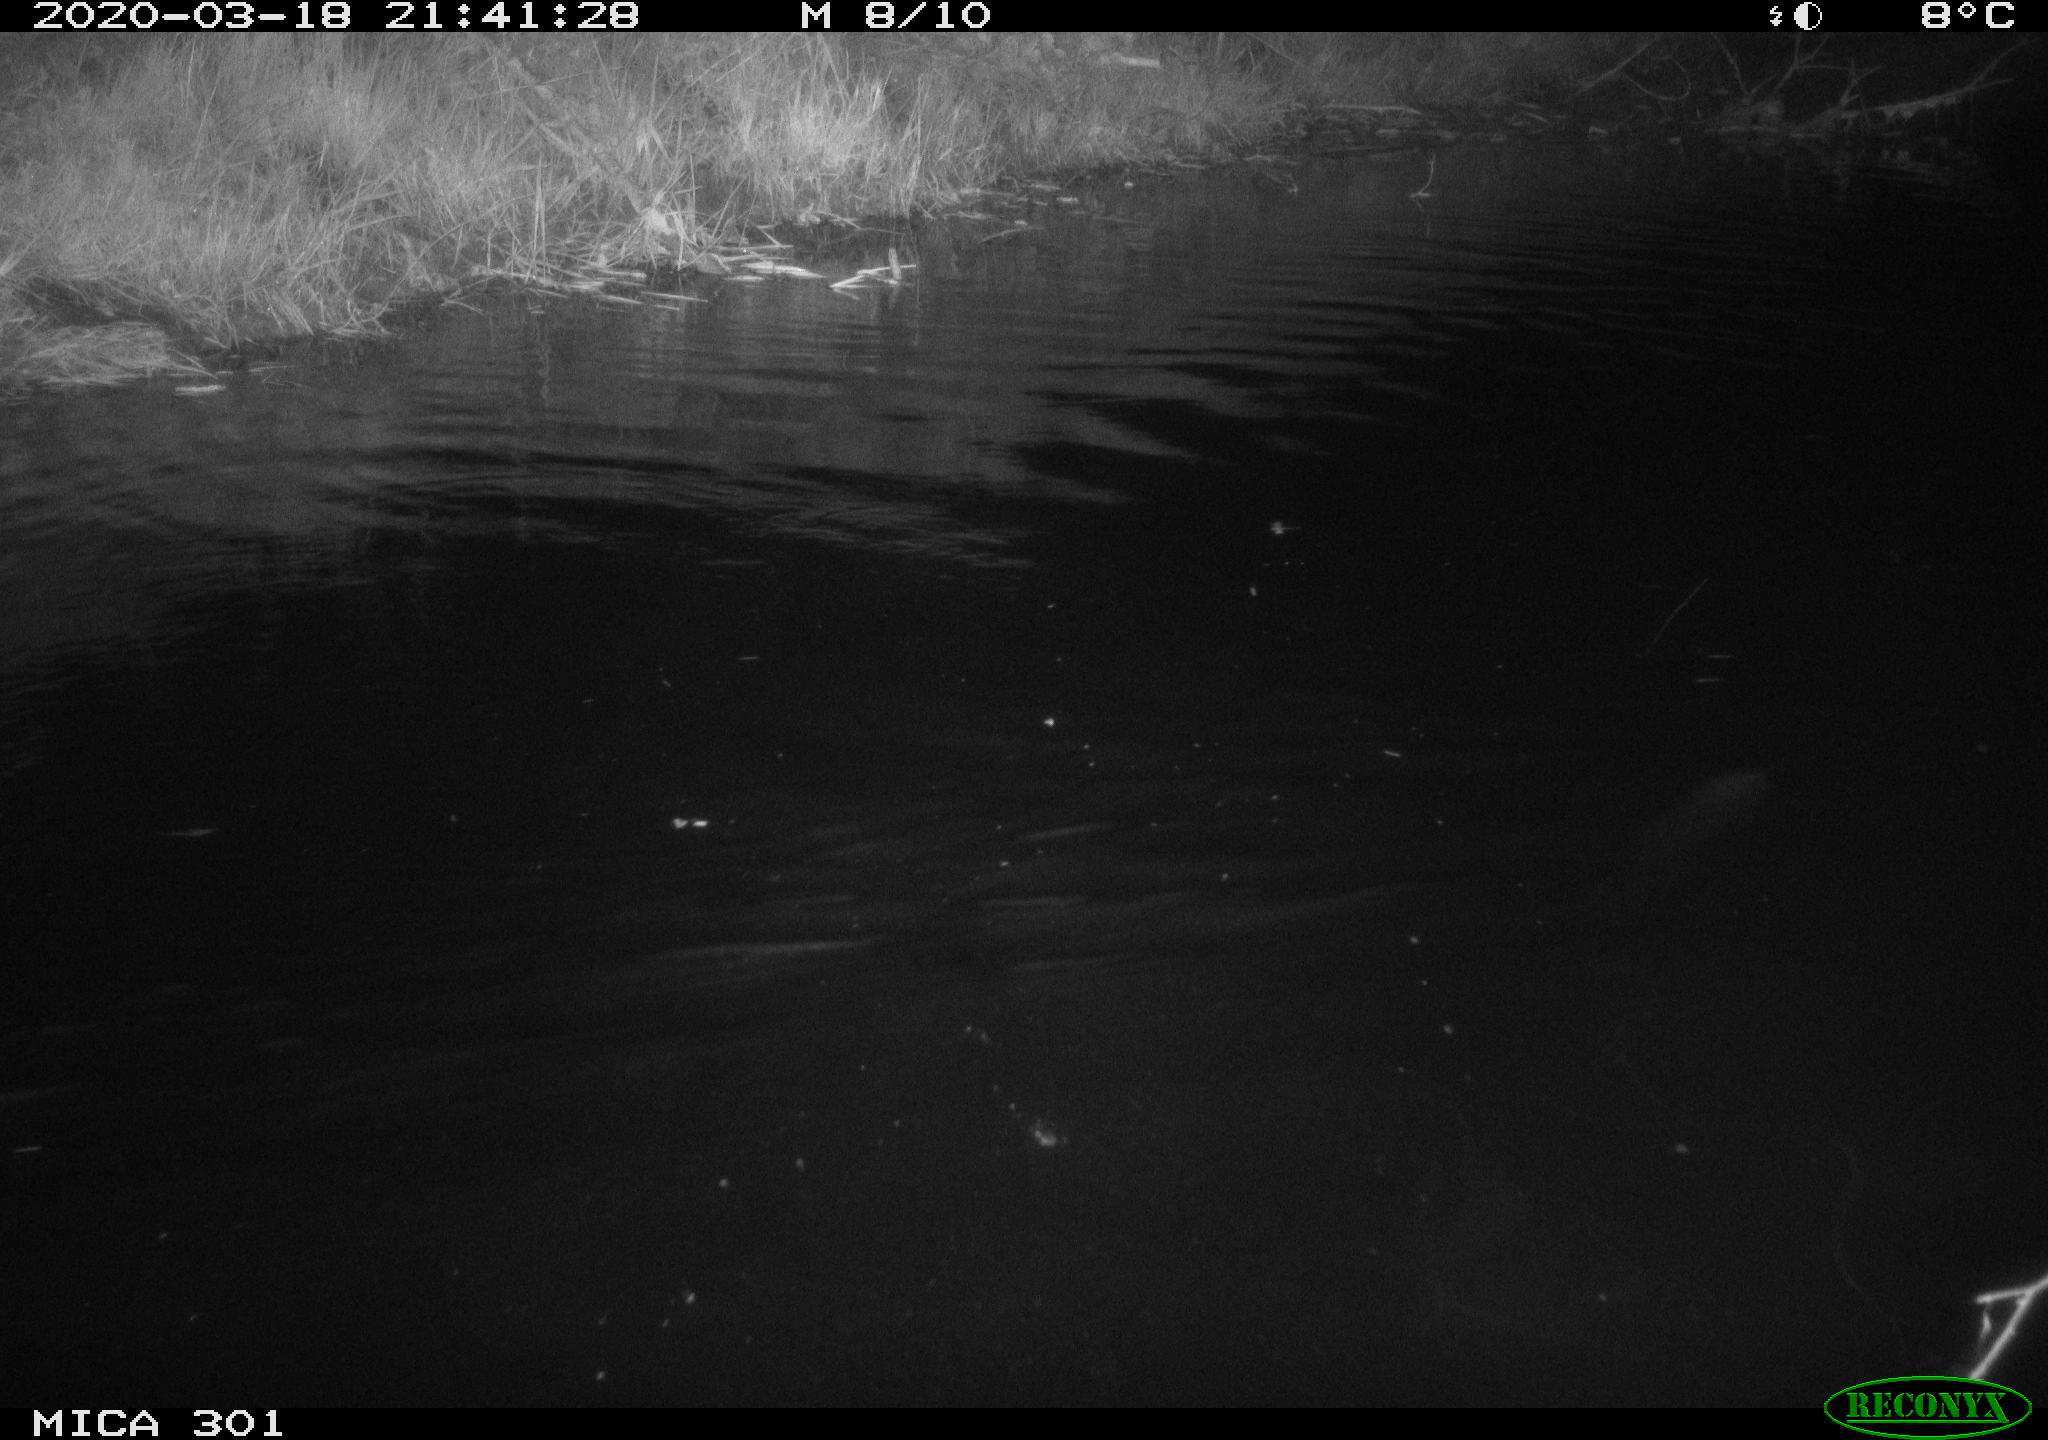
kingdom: Animalia
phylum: Chordata
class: Mammalia
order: Rodentia
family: Castoridae
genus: Castor
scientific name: Castor fiber
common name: Eurasian beaver
